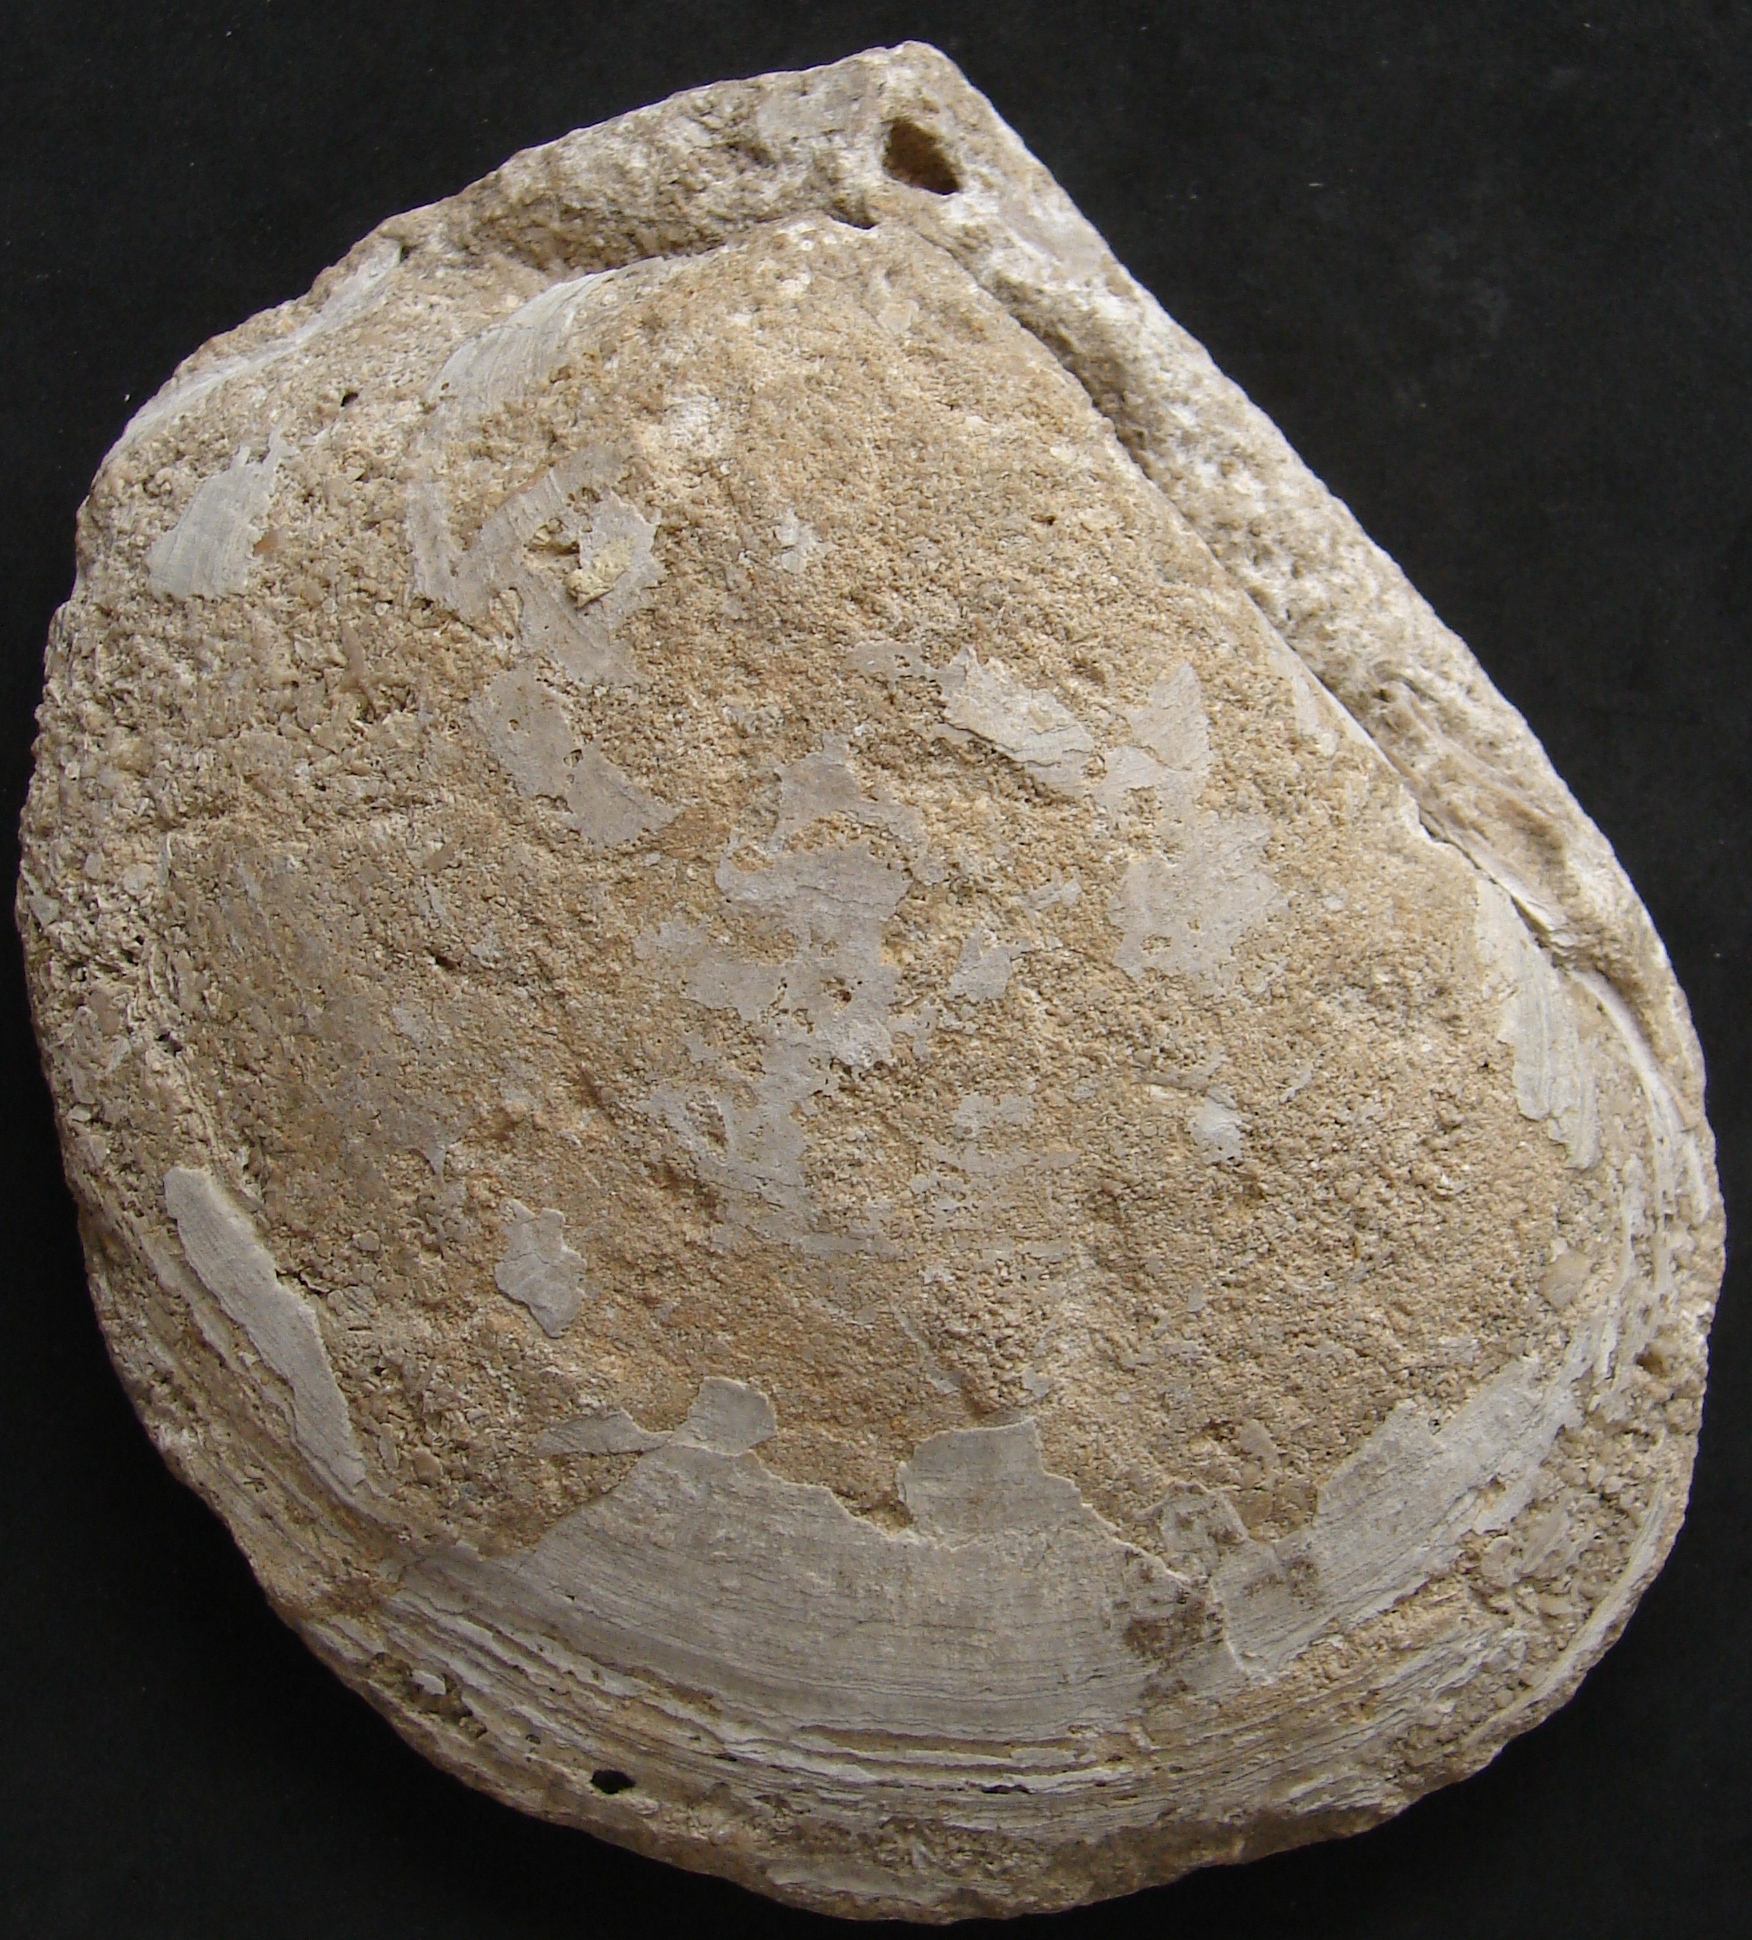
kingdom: Animalia
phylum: Mollusca
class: Bivalvia
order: Limida
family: Limidae
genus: Lima
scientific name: Lima semicircularis
